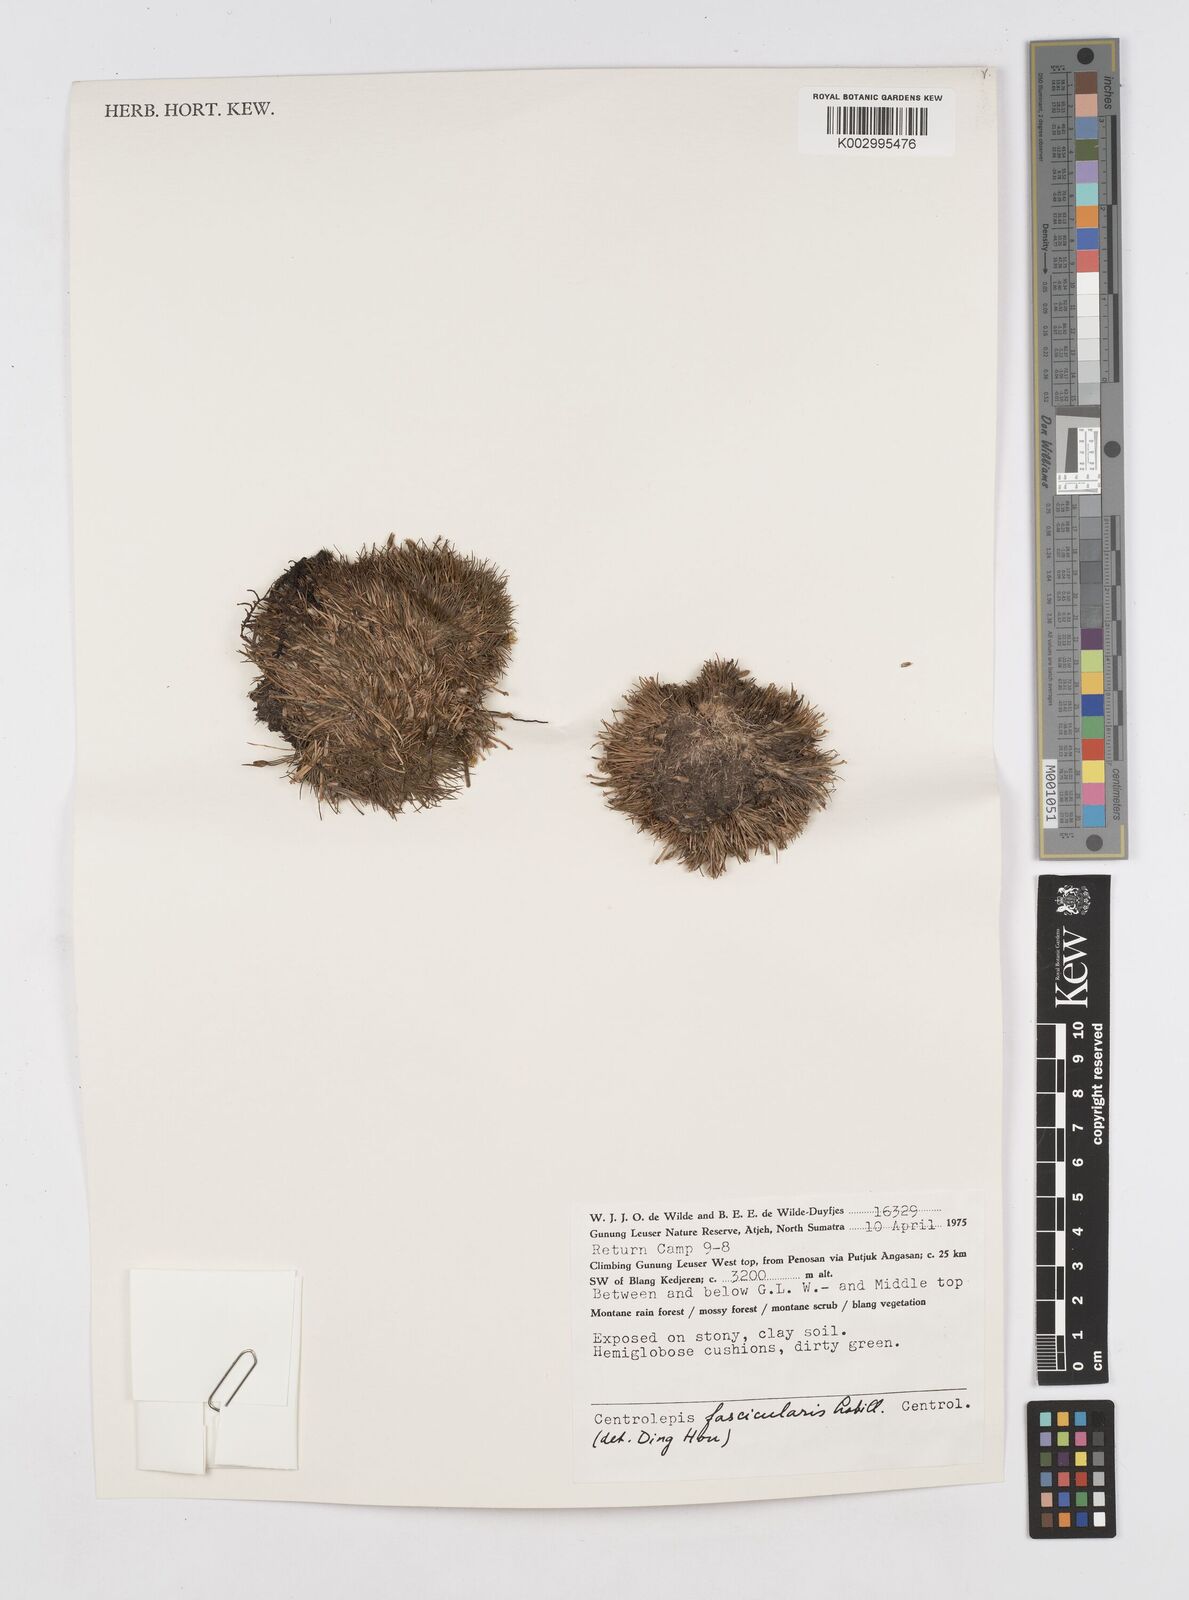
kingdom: Plantae
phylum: Tracheophyta
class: Liliopsida
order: Poales
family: Restionaceae
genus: Centrolepis
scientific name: Centrolepis fascicularis
